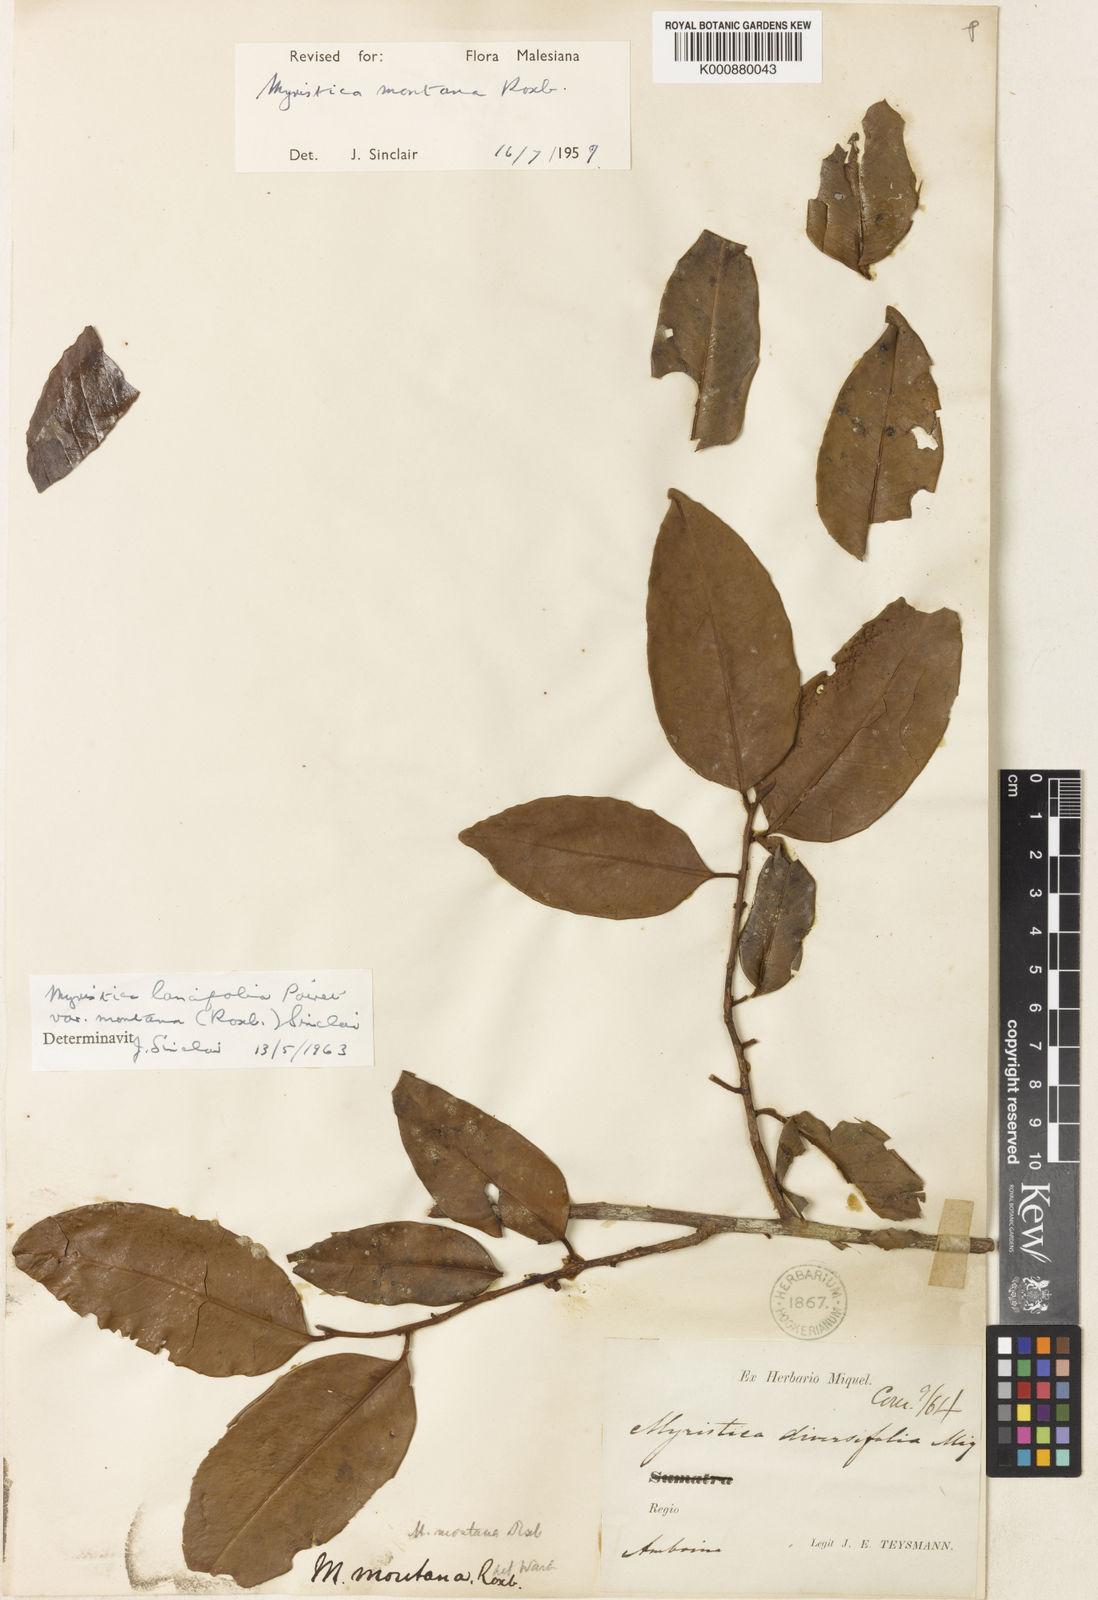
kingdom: Plantae
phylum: Tracheophyta
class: Magnoliopsida
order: Magnoliales
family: Myristicaceae
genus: Myristica
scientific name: Myristica lancifolia
